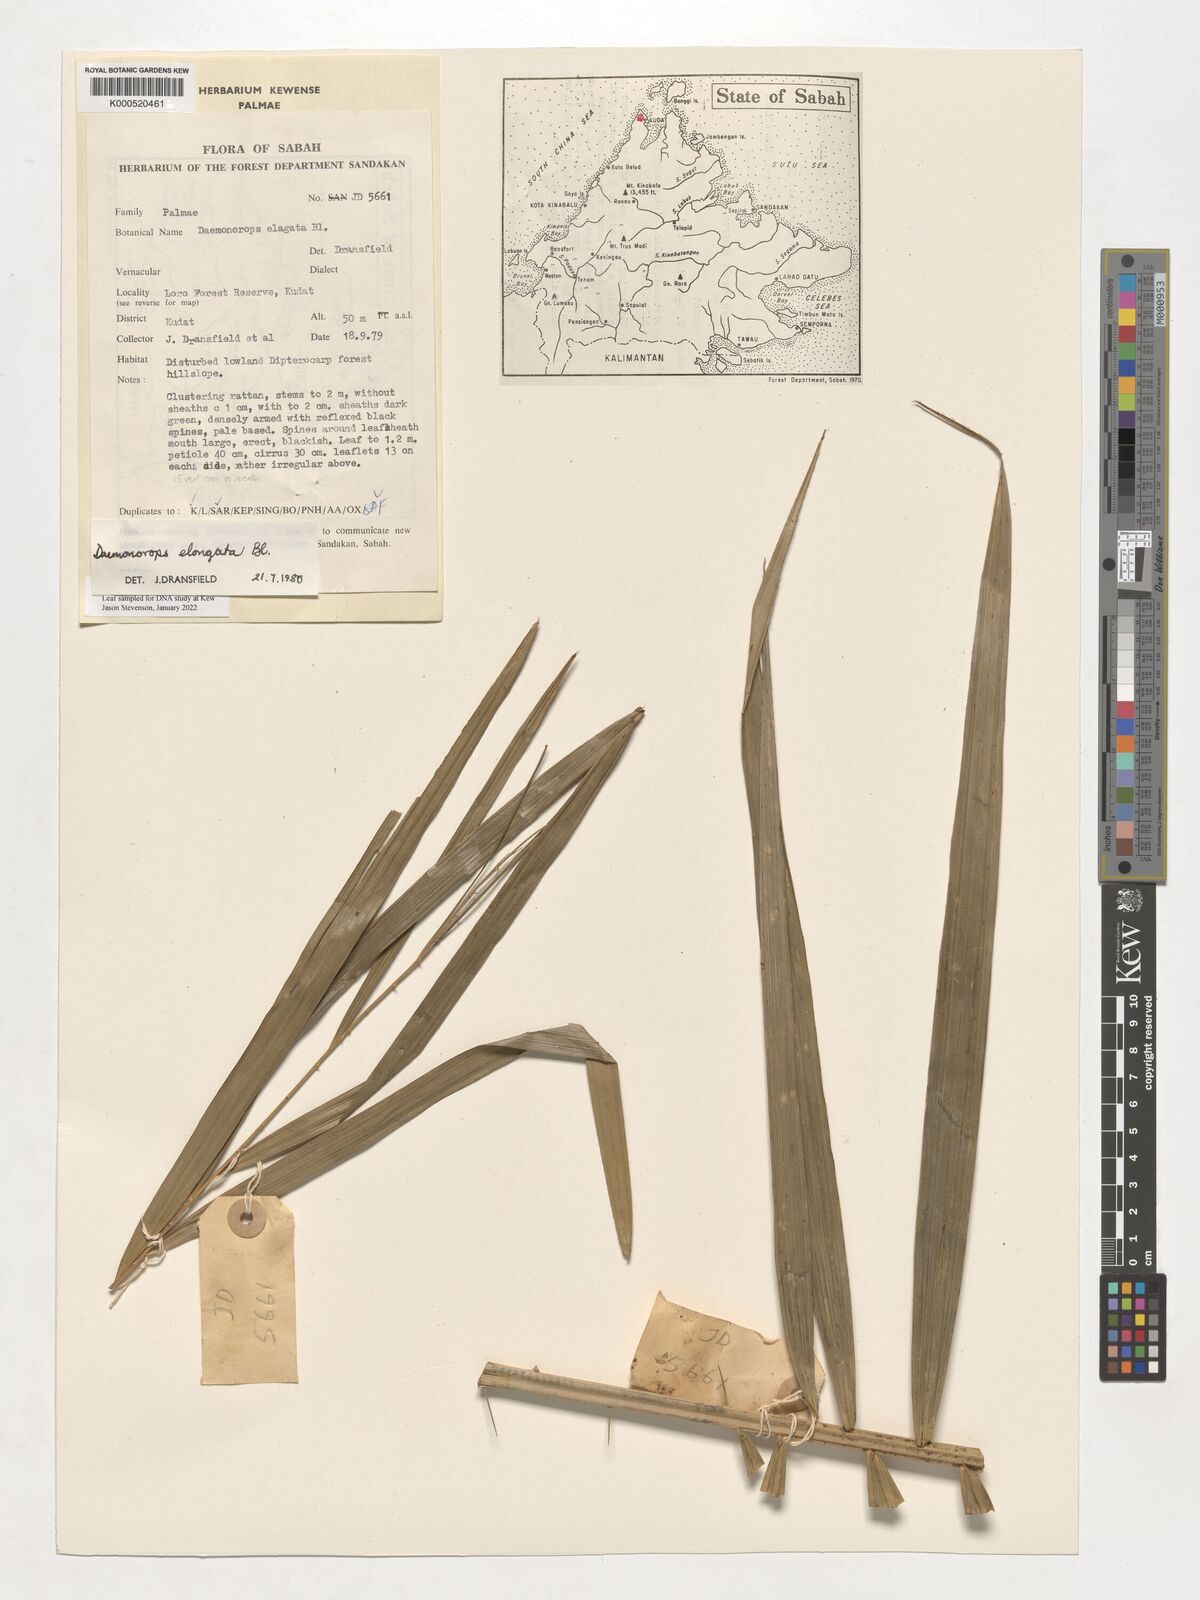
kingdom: Plantae
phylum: Tracheophyta
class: Liliopsida
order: Arecales
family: Arecaceae
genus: Calamus
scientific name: Calamus oblongus
